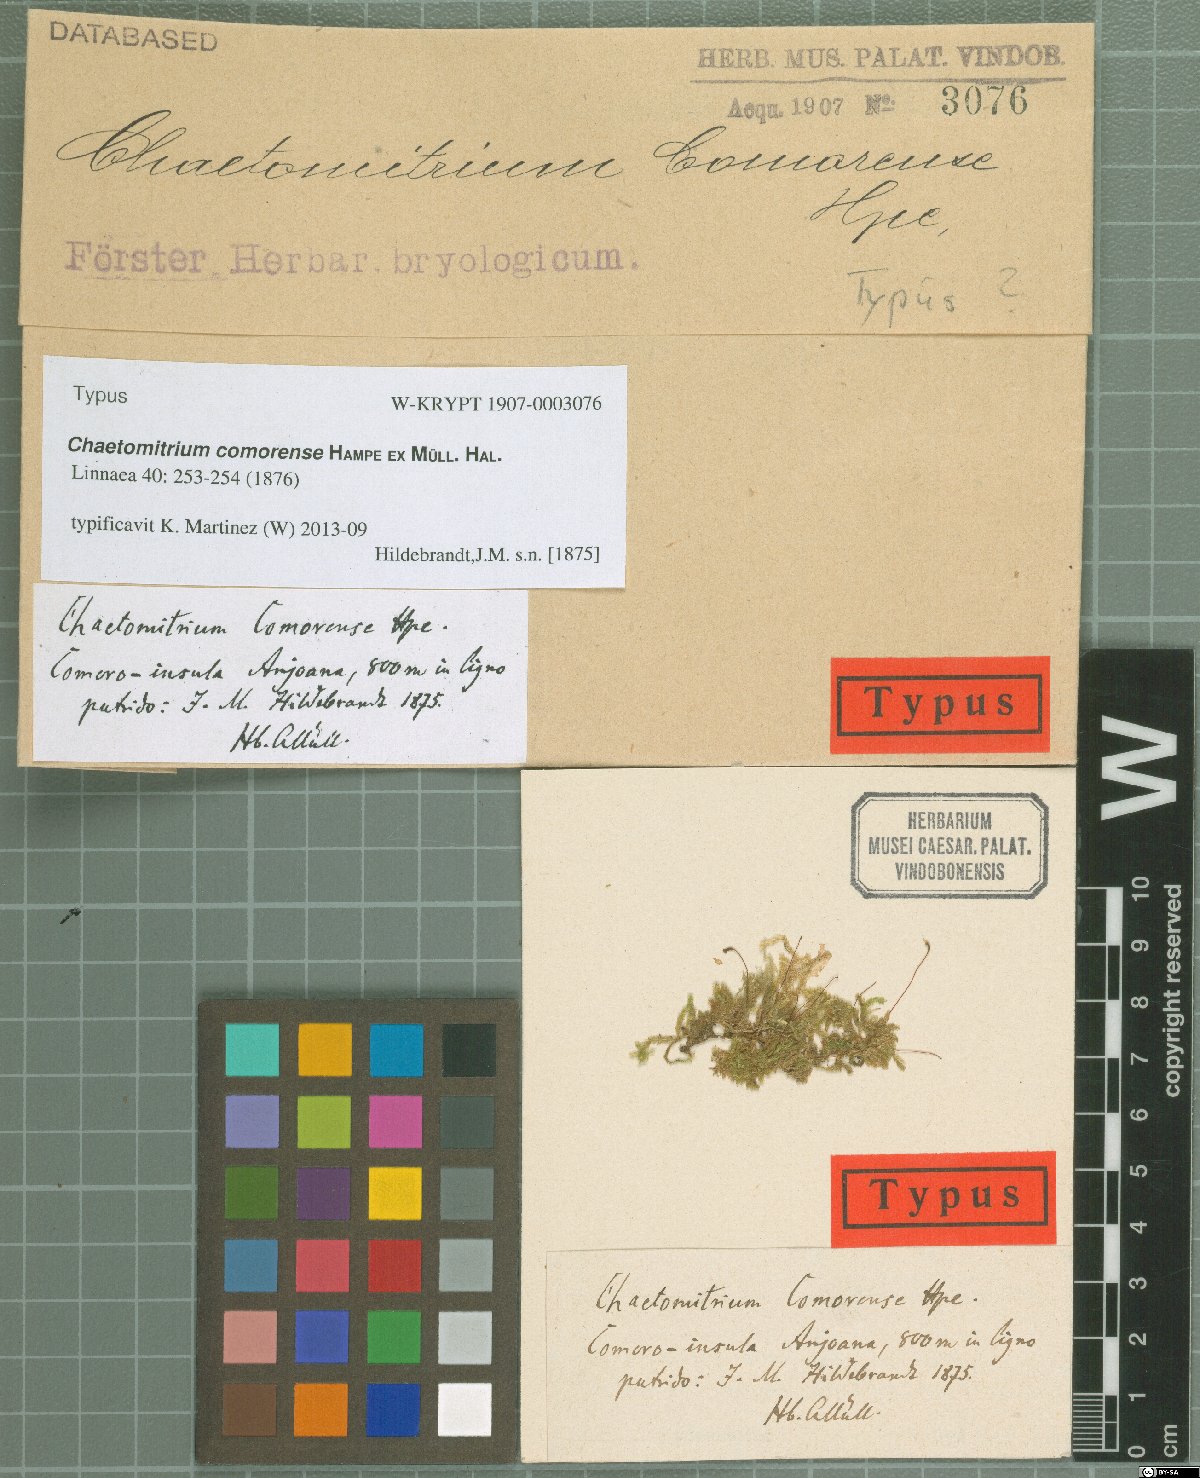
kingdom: Plantae
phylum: Bryophyta
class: Bryopsida
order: Hypnales
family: Symphyodontaceae
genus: Chaetomitrium
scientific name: Chaetomitrium comorense
